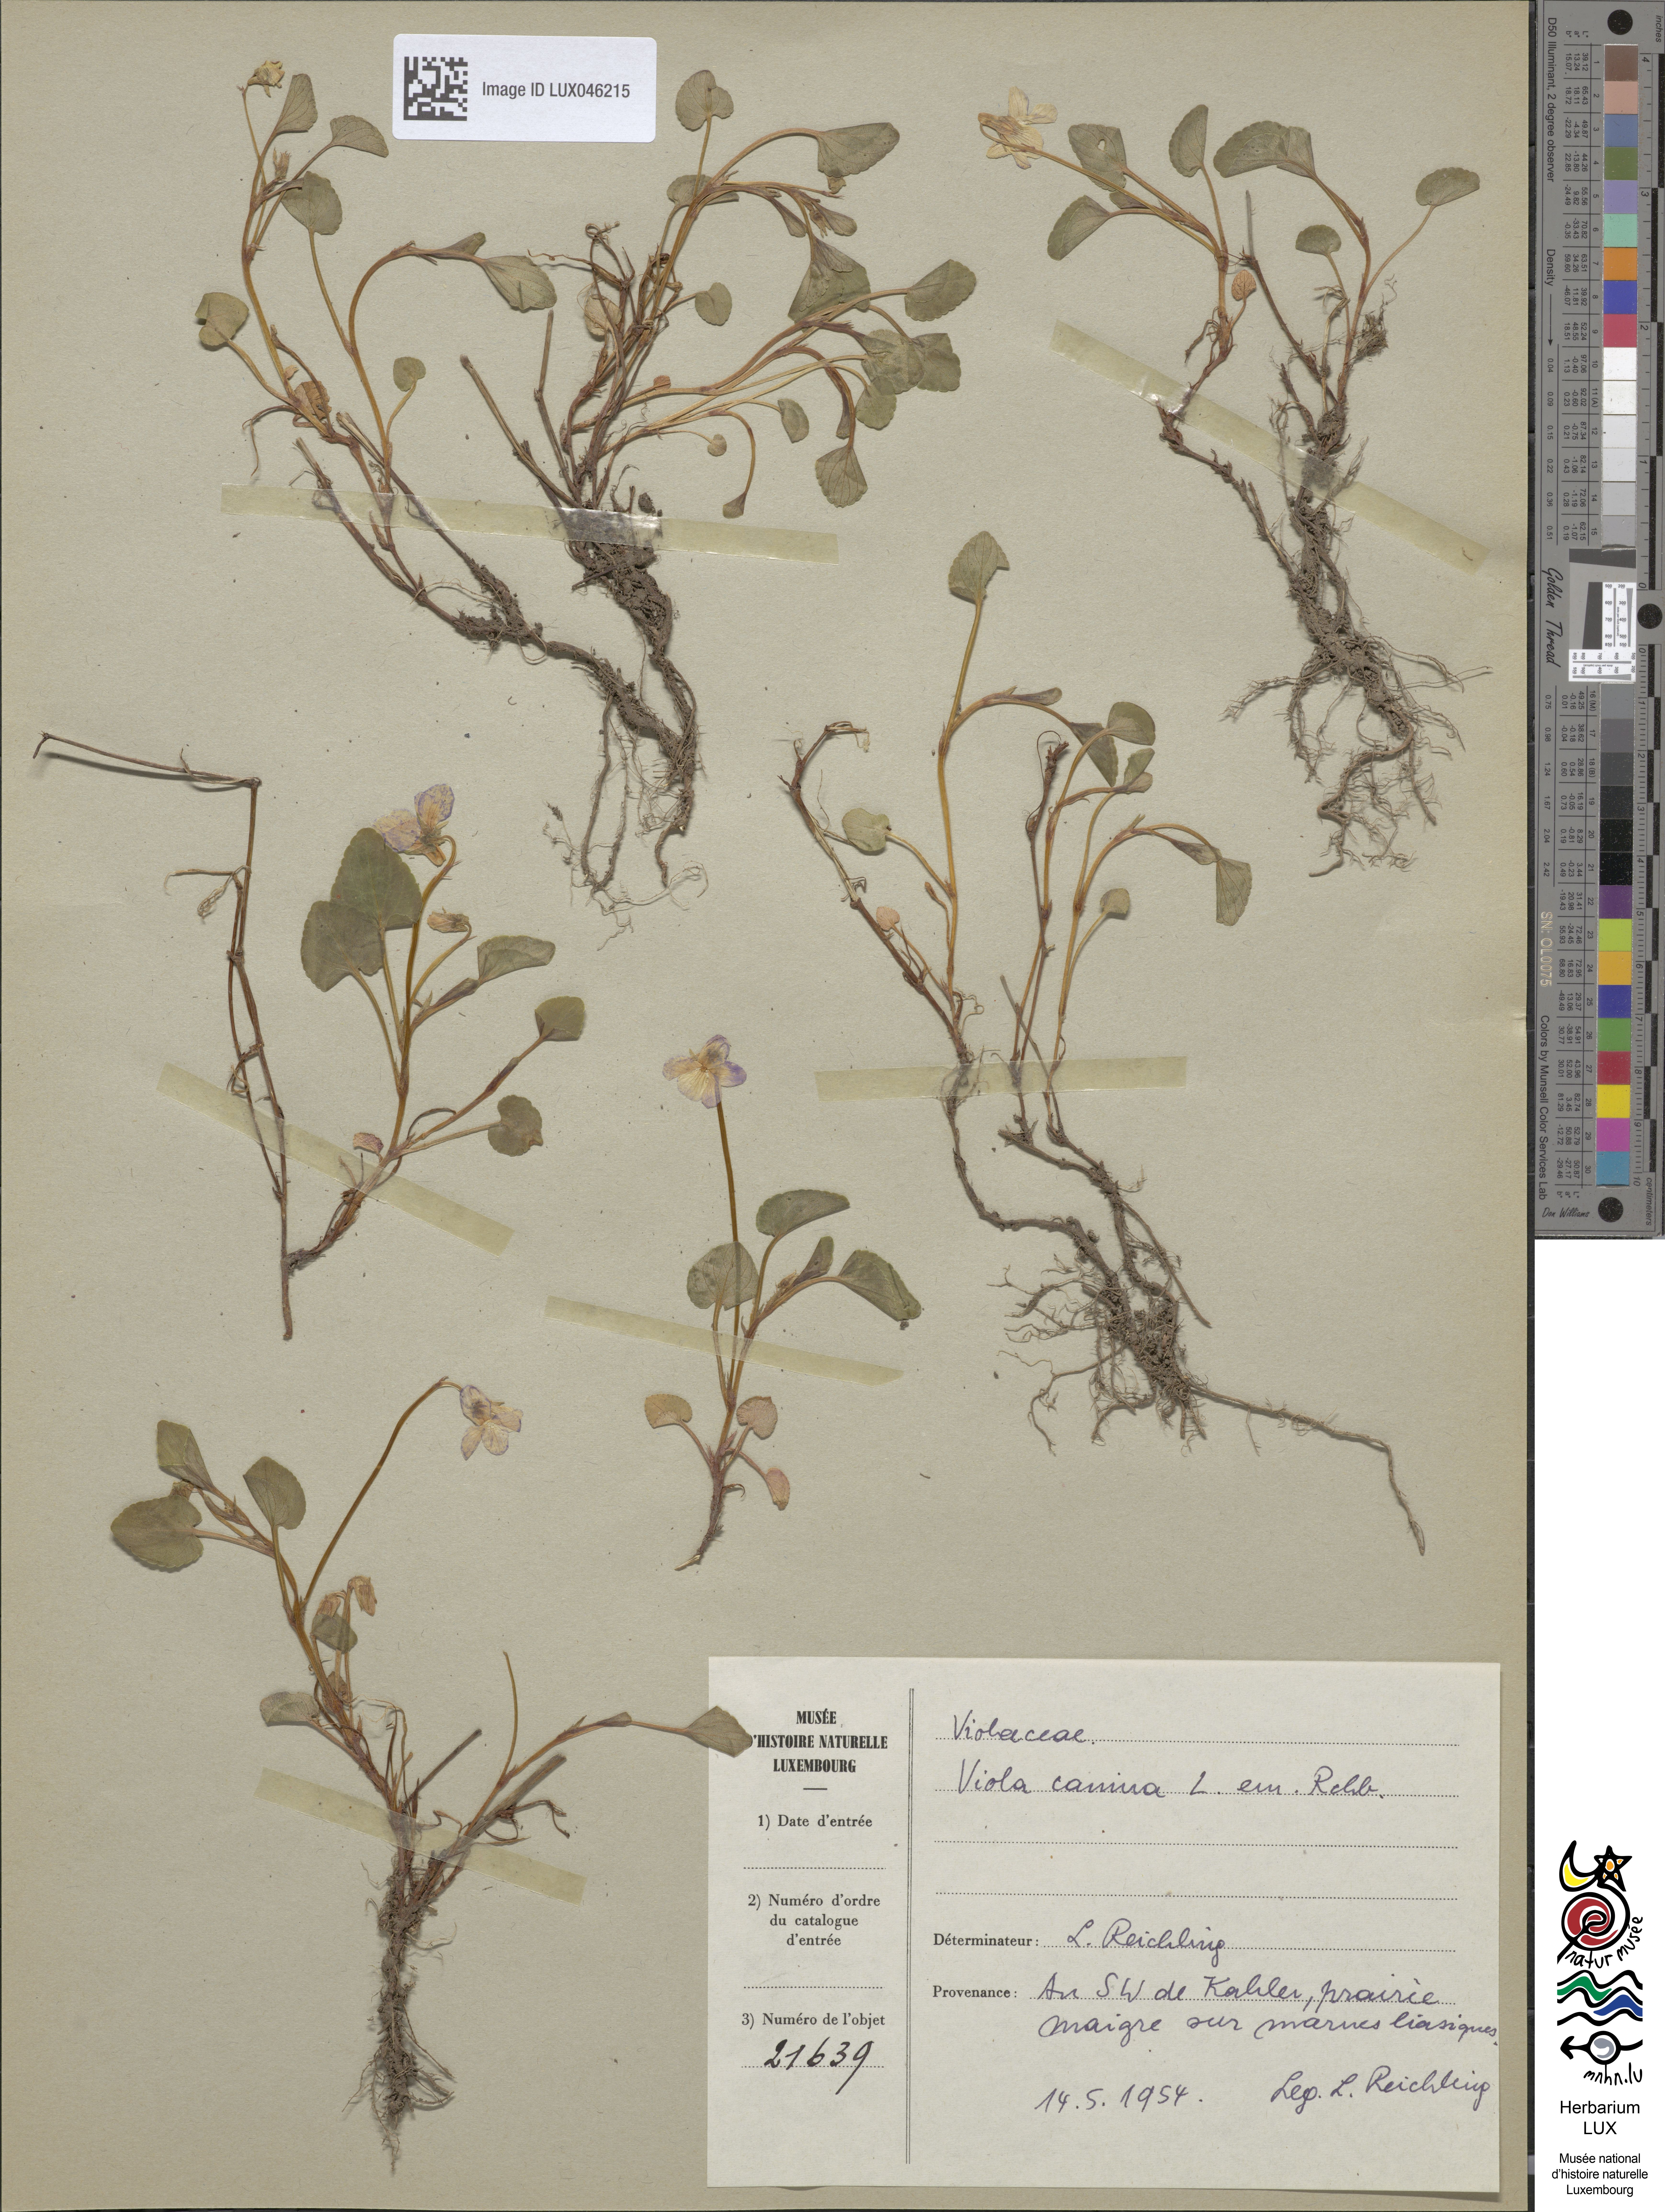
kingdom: Plantae
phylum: Tracheophyta
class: Magnoliopsida
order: Malpighiales
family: Violaceae
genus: Viola
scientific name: Viola canina
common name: Heath dog-violet
